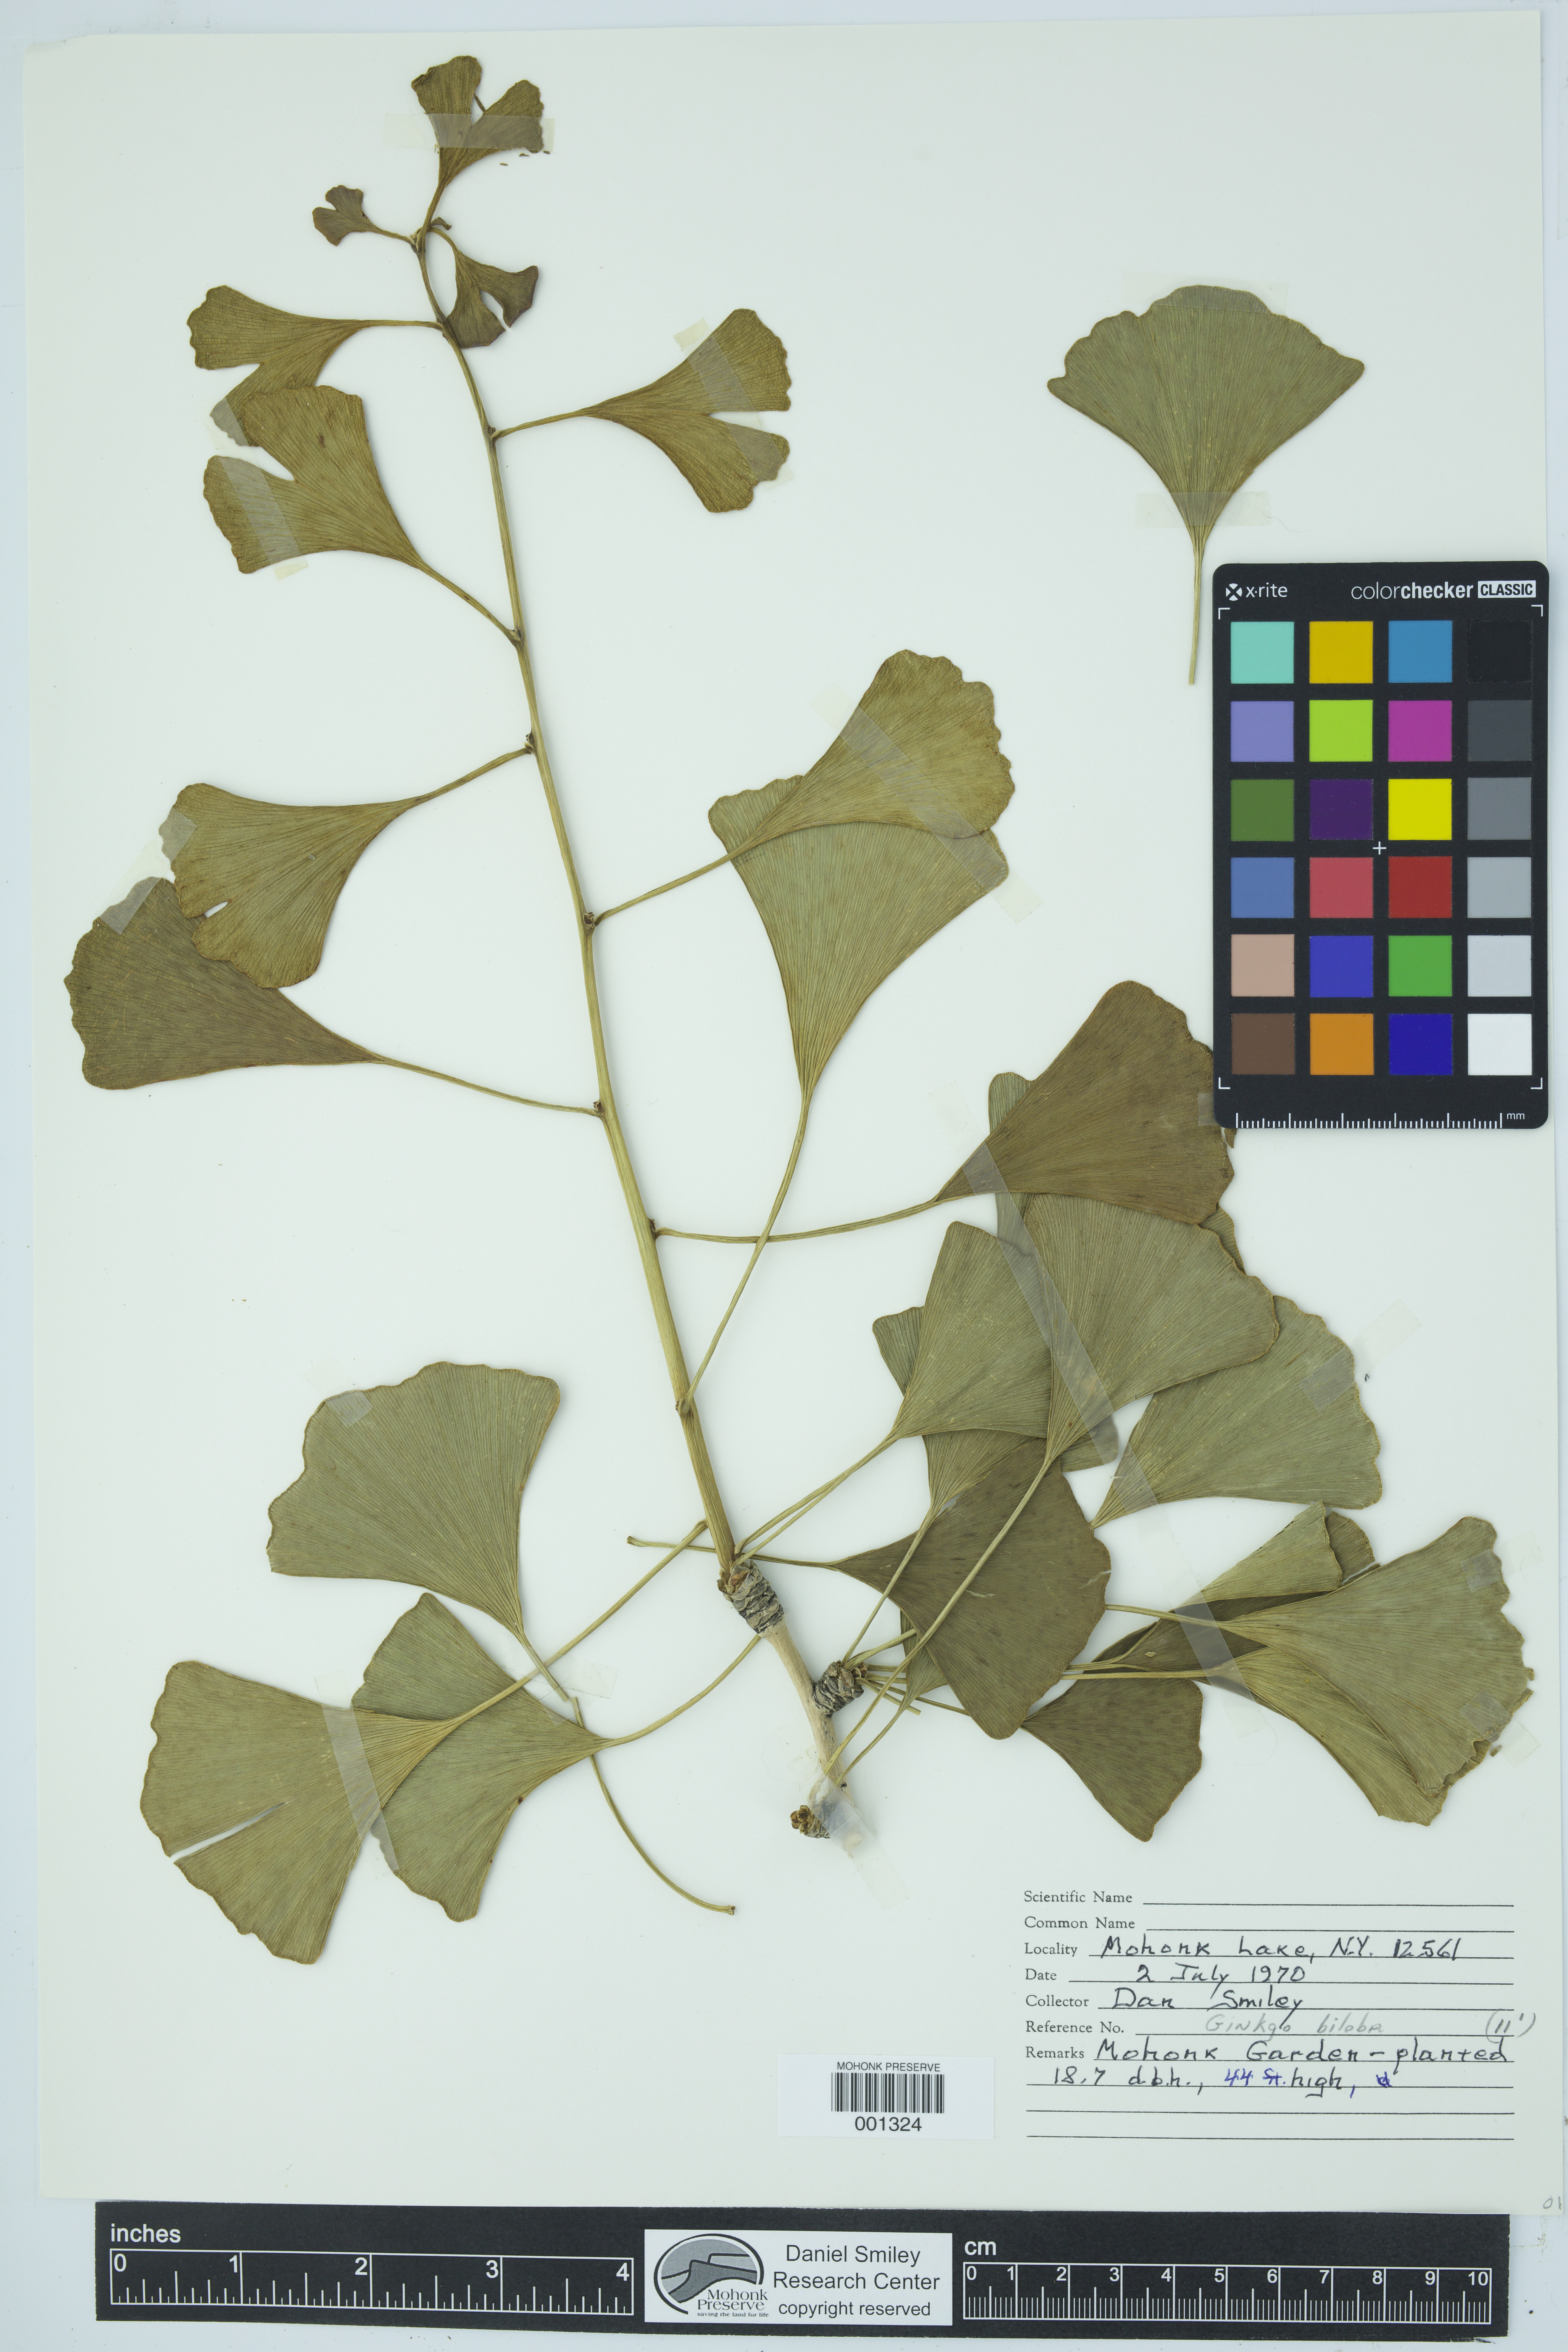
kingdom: Plantae
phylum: Tracheophyta
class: Ginkgoopsida
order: Ginkgoales
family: Ginkgoaceae
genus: Ginkgo
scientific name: Ginkgo biloba
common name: Ginkgo
